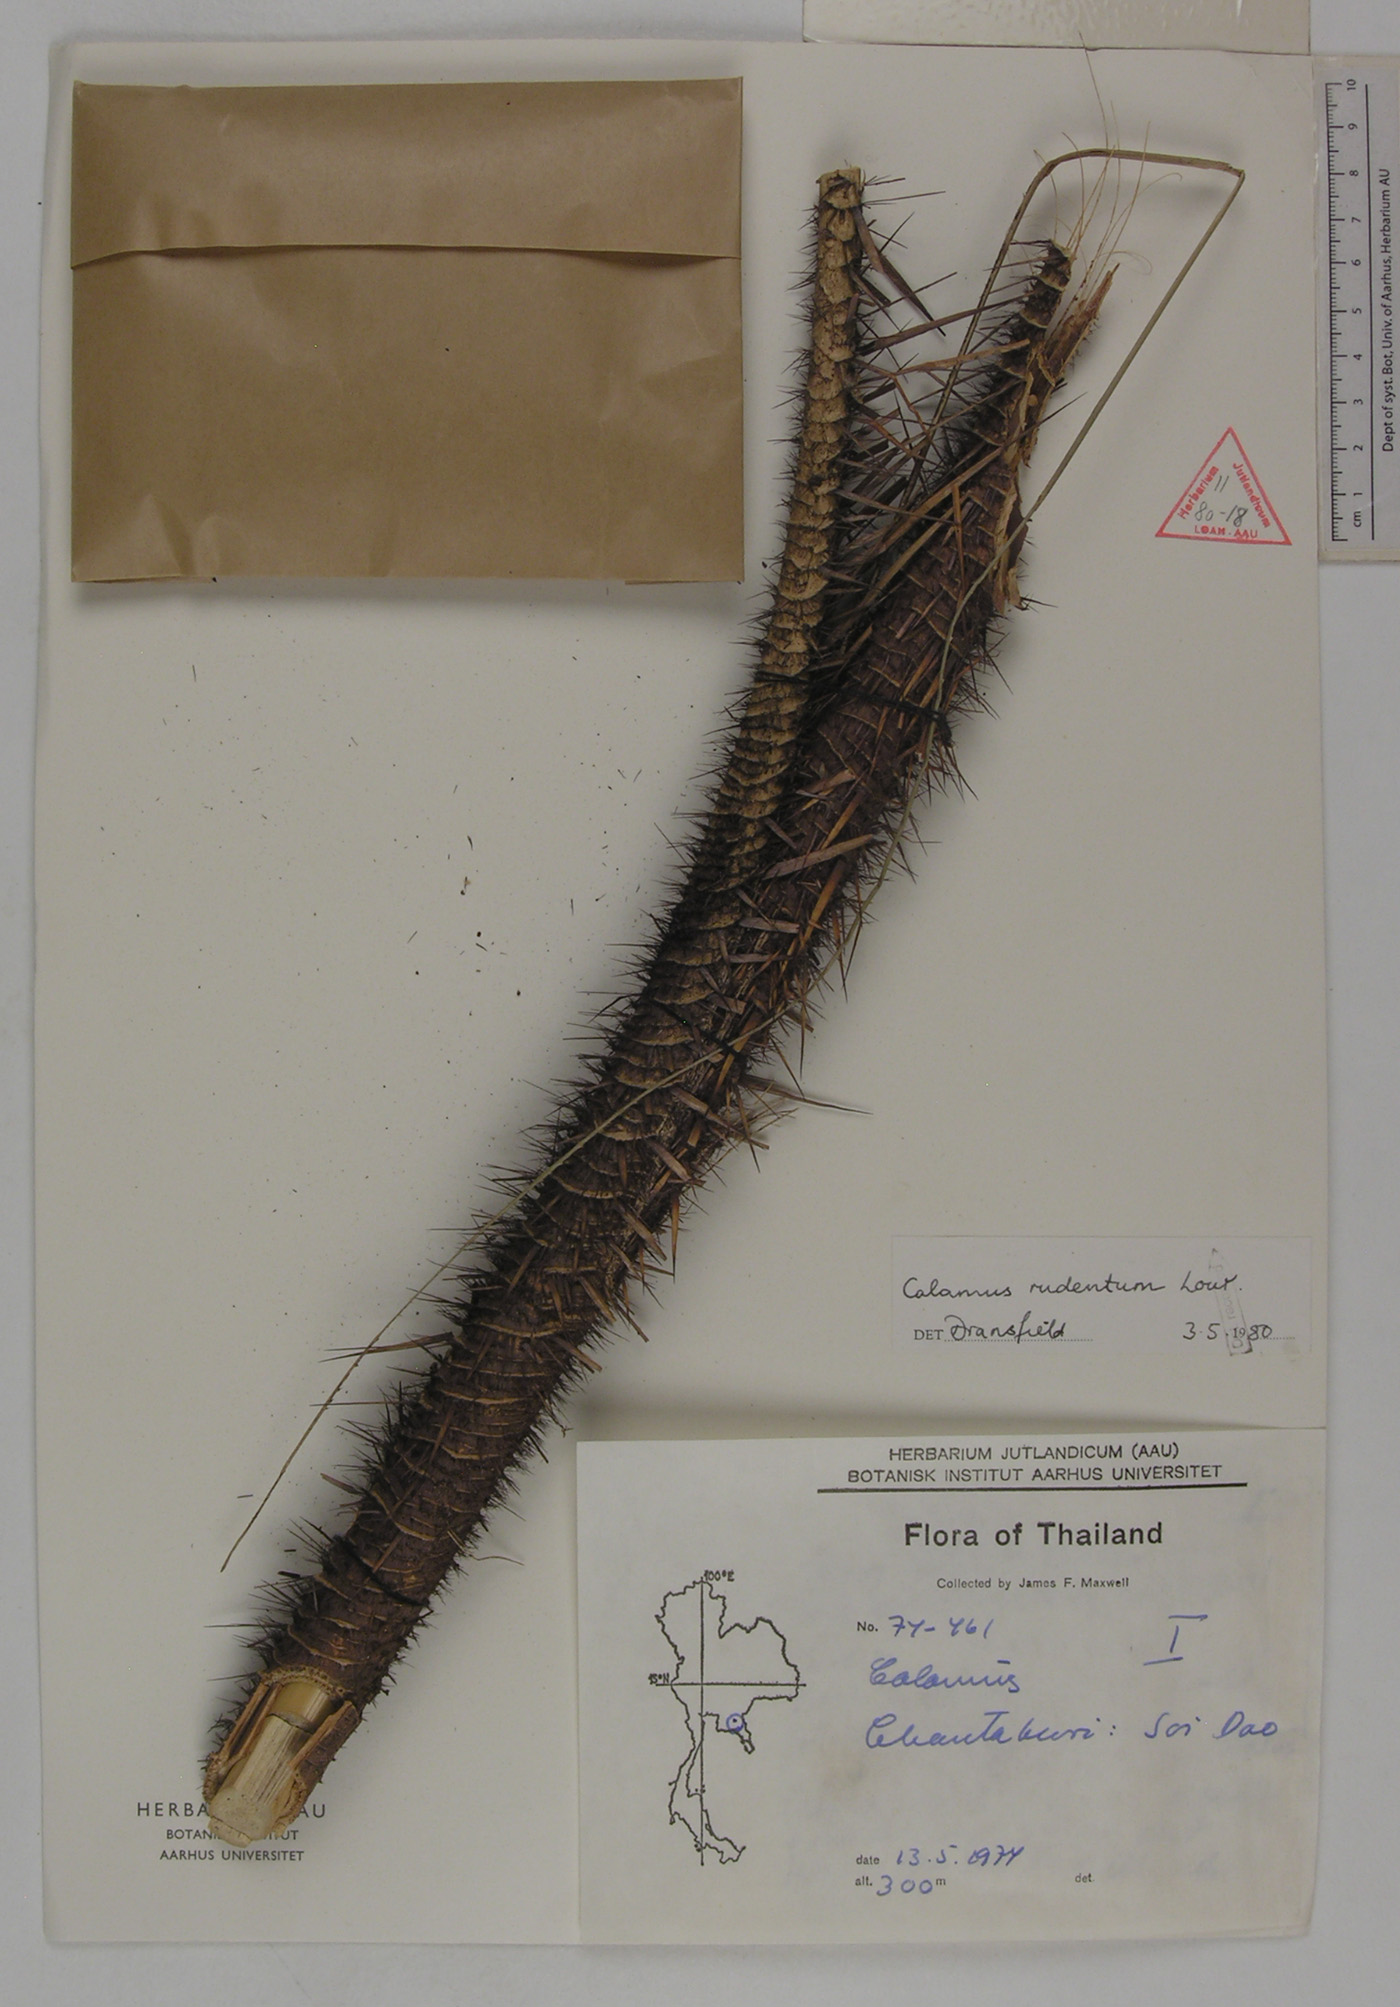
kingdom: Plantae
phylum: Tracheophyta
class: Liliopsida
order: Arecales
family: Arecaceae
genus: Calamus
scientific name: Calamus rudentum
